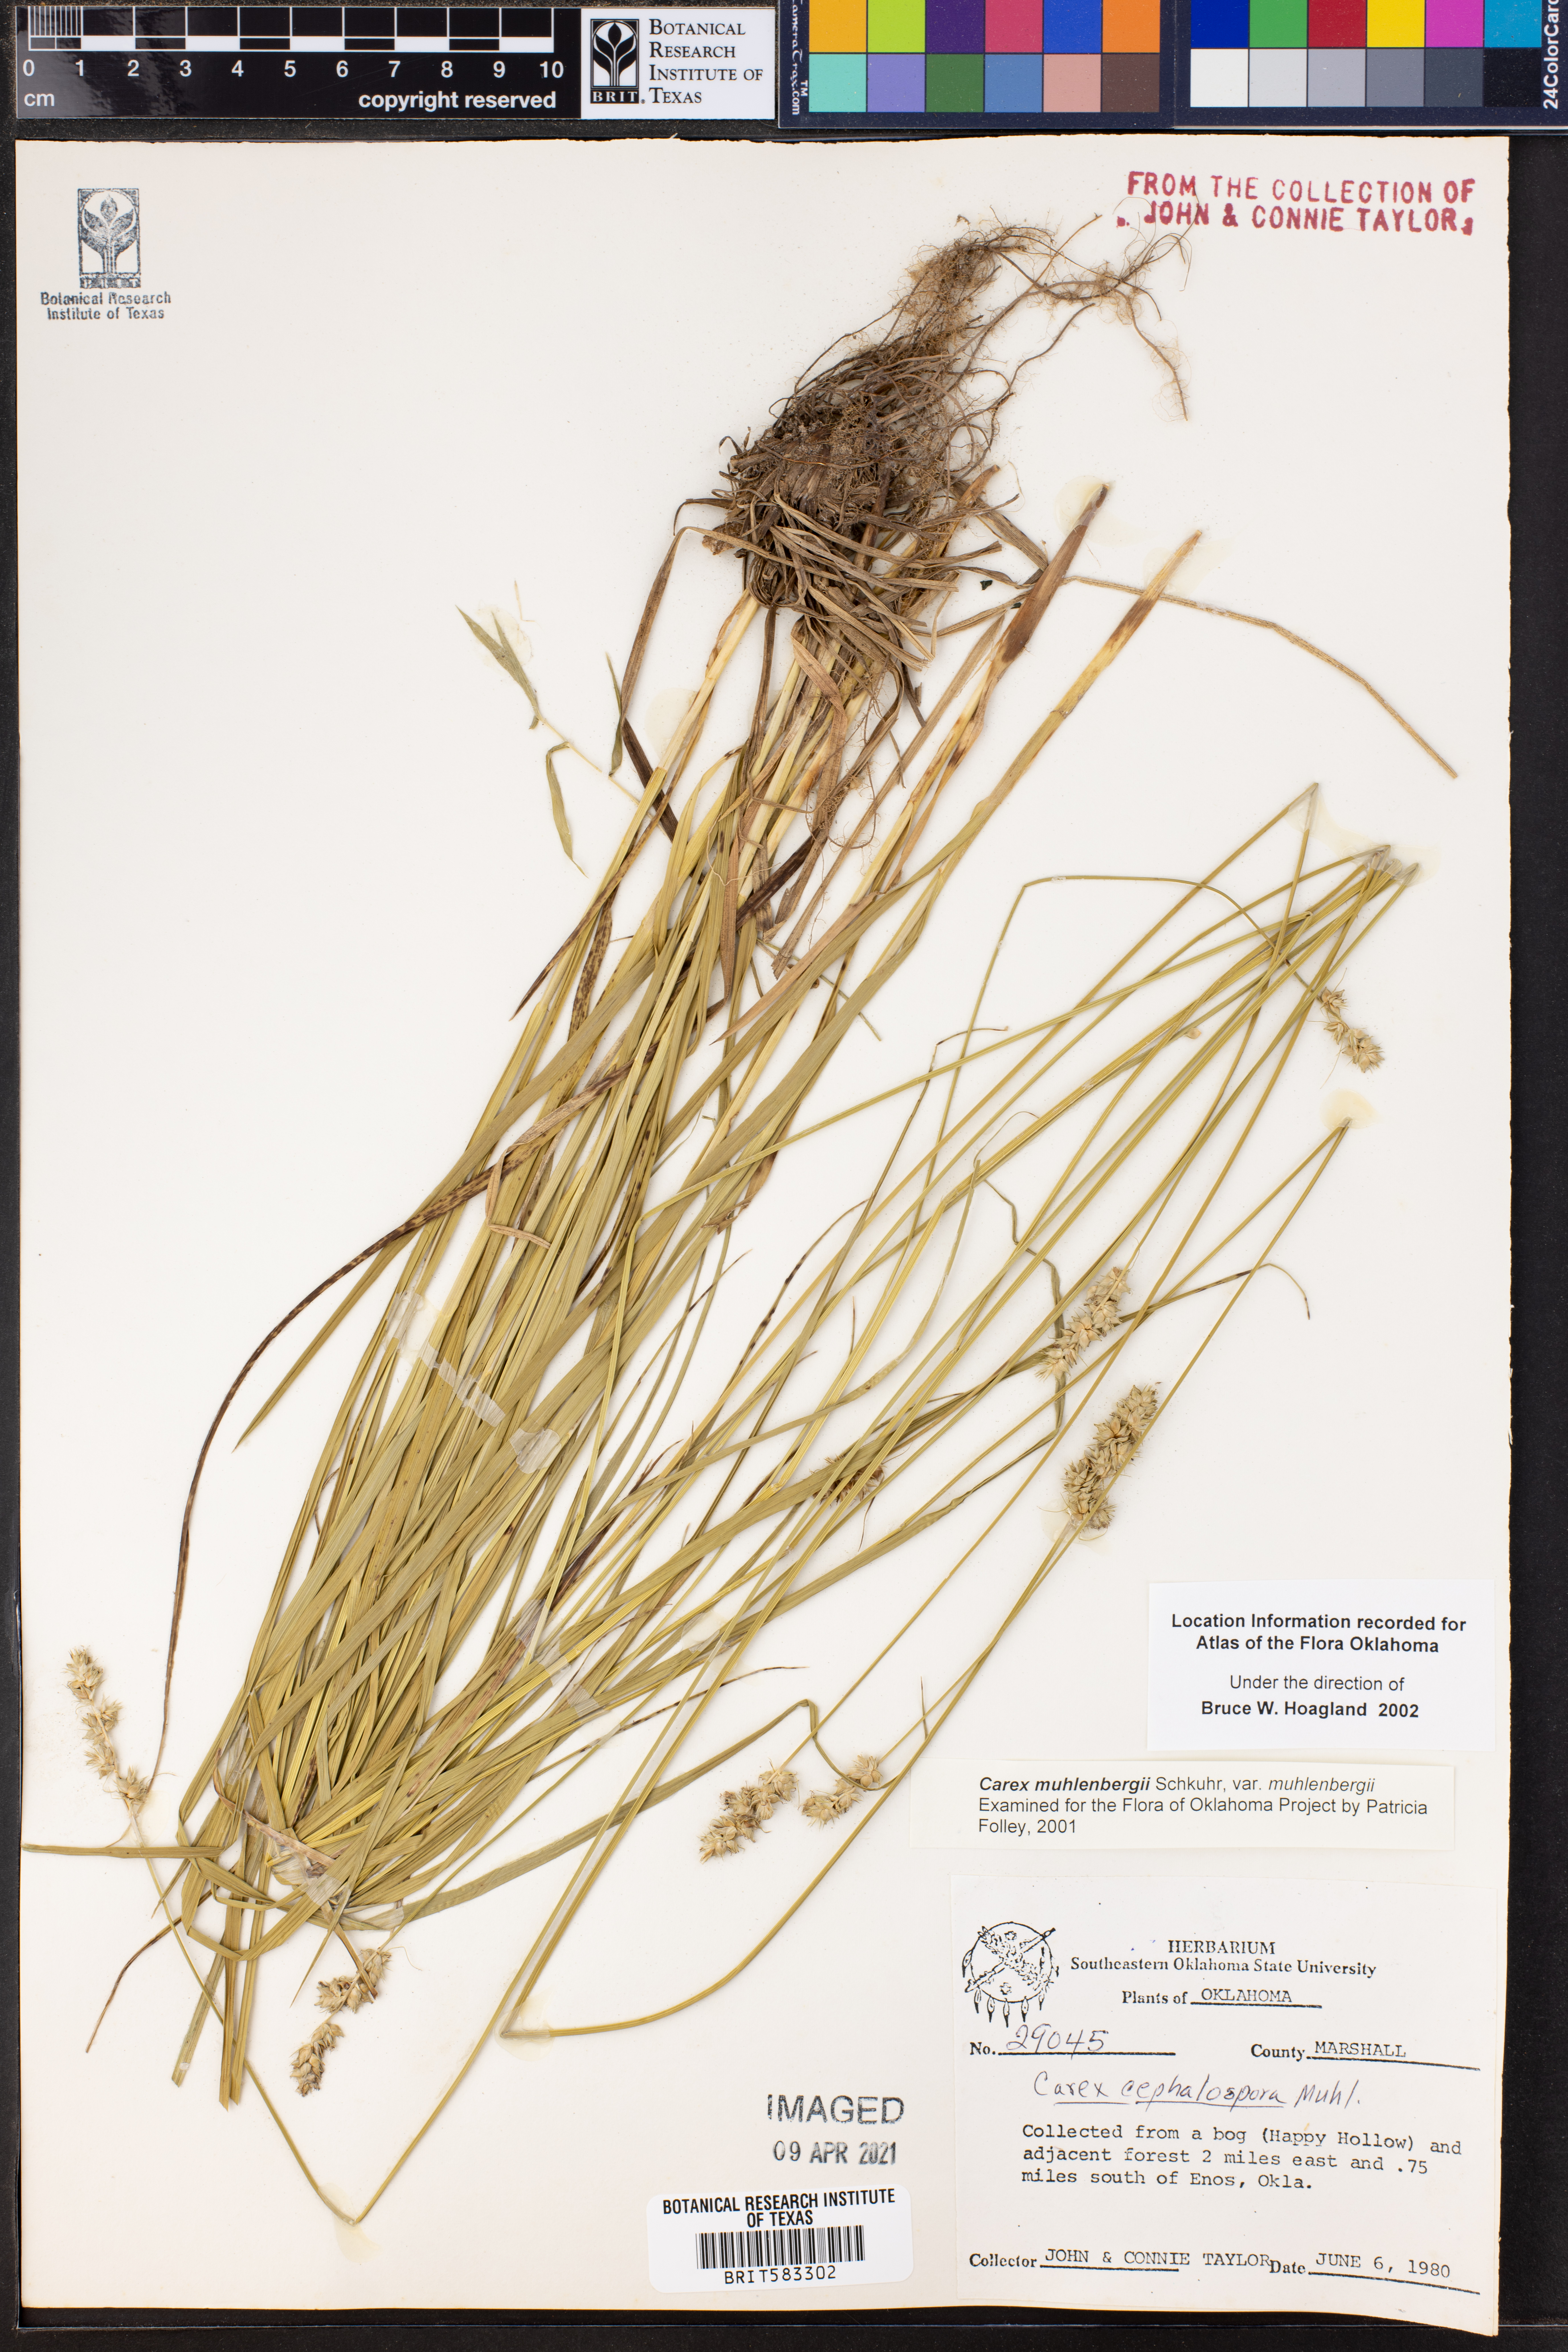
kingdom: Plantae
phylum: Tracheophyta
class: Liliopsida
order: Poales
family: Cyperaceae
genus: Carex
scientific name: Carex vulpinoidea
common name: American fox-sedge
